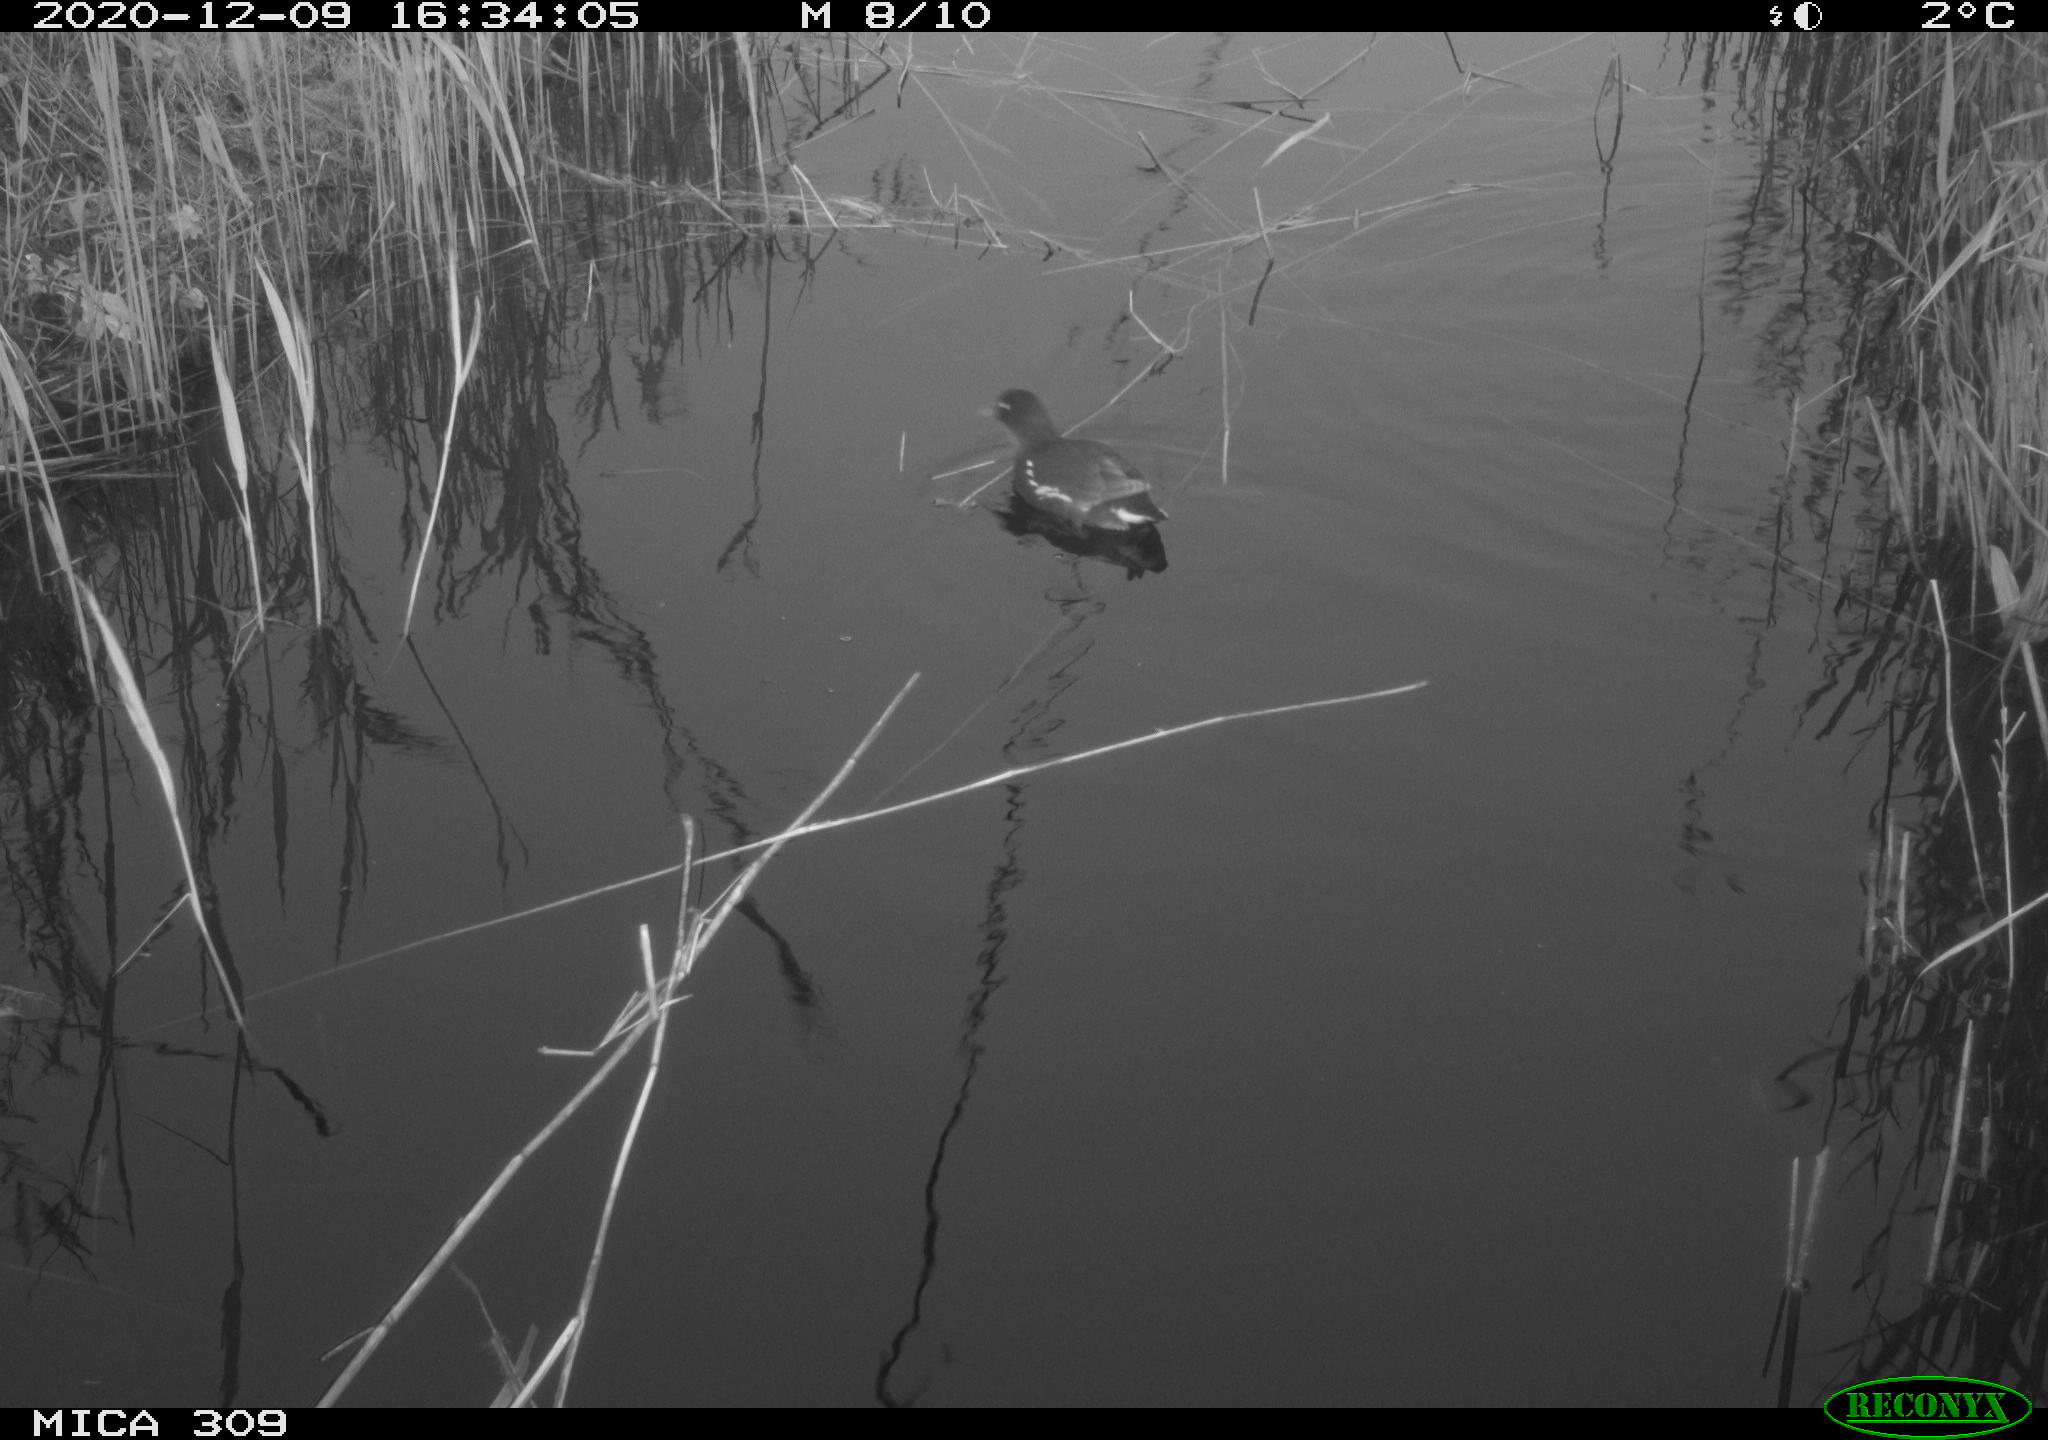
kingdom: Animalia
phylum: Chordata
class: Aves
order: Gruiformes
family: Rallidae
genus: Gallinula
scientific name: Gallinula chloropus
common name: Common moorhen
